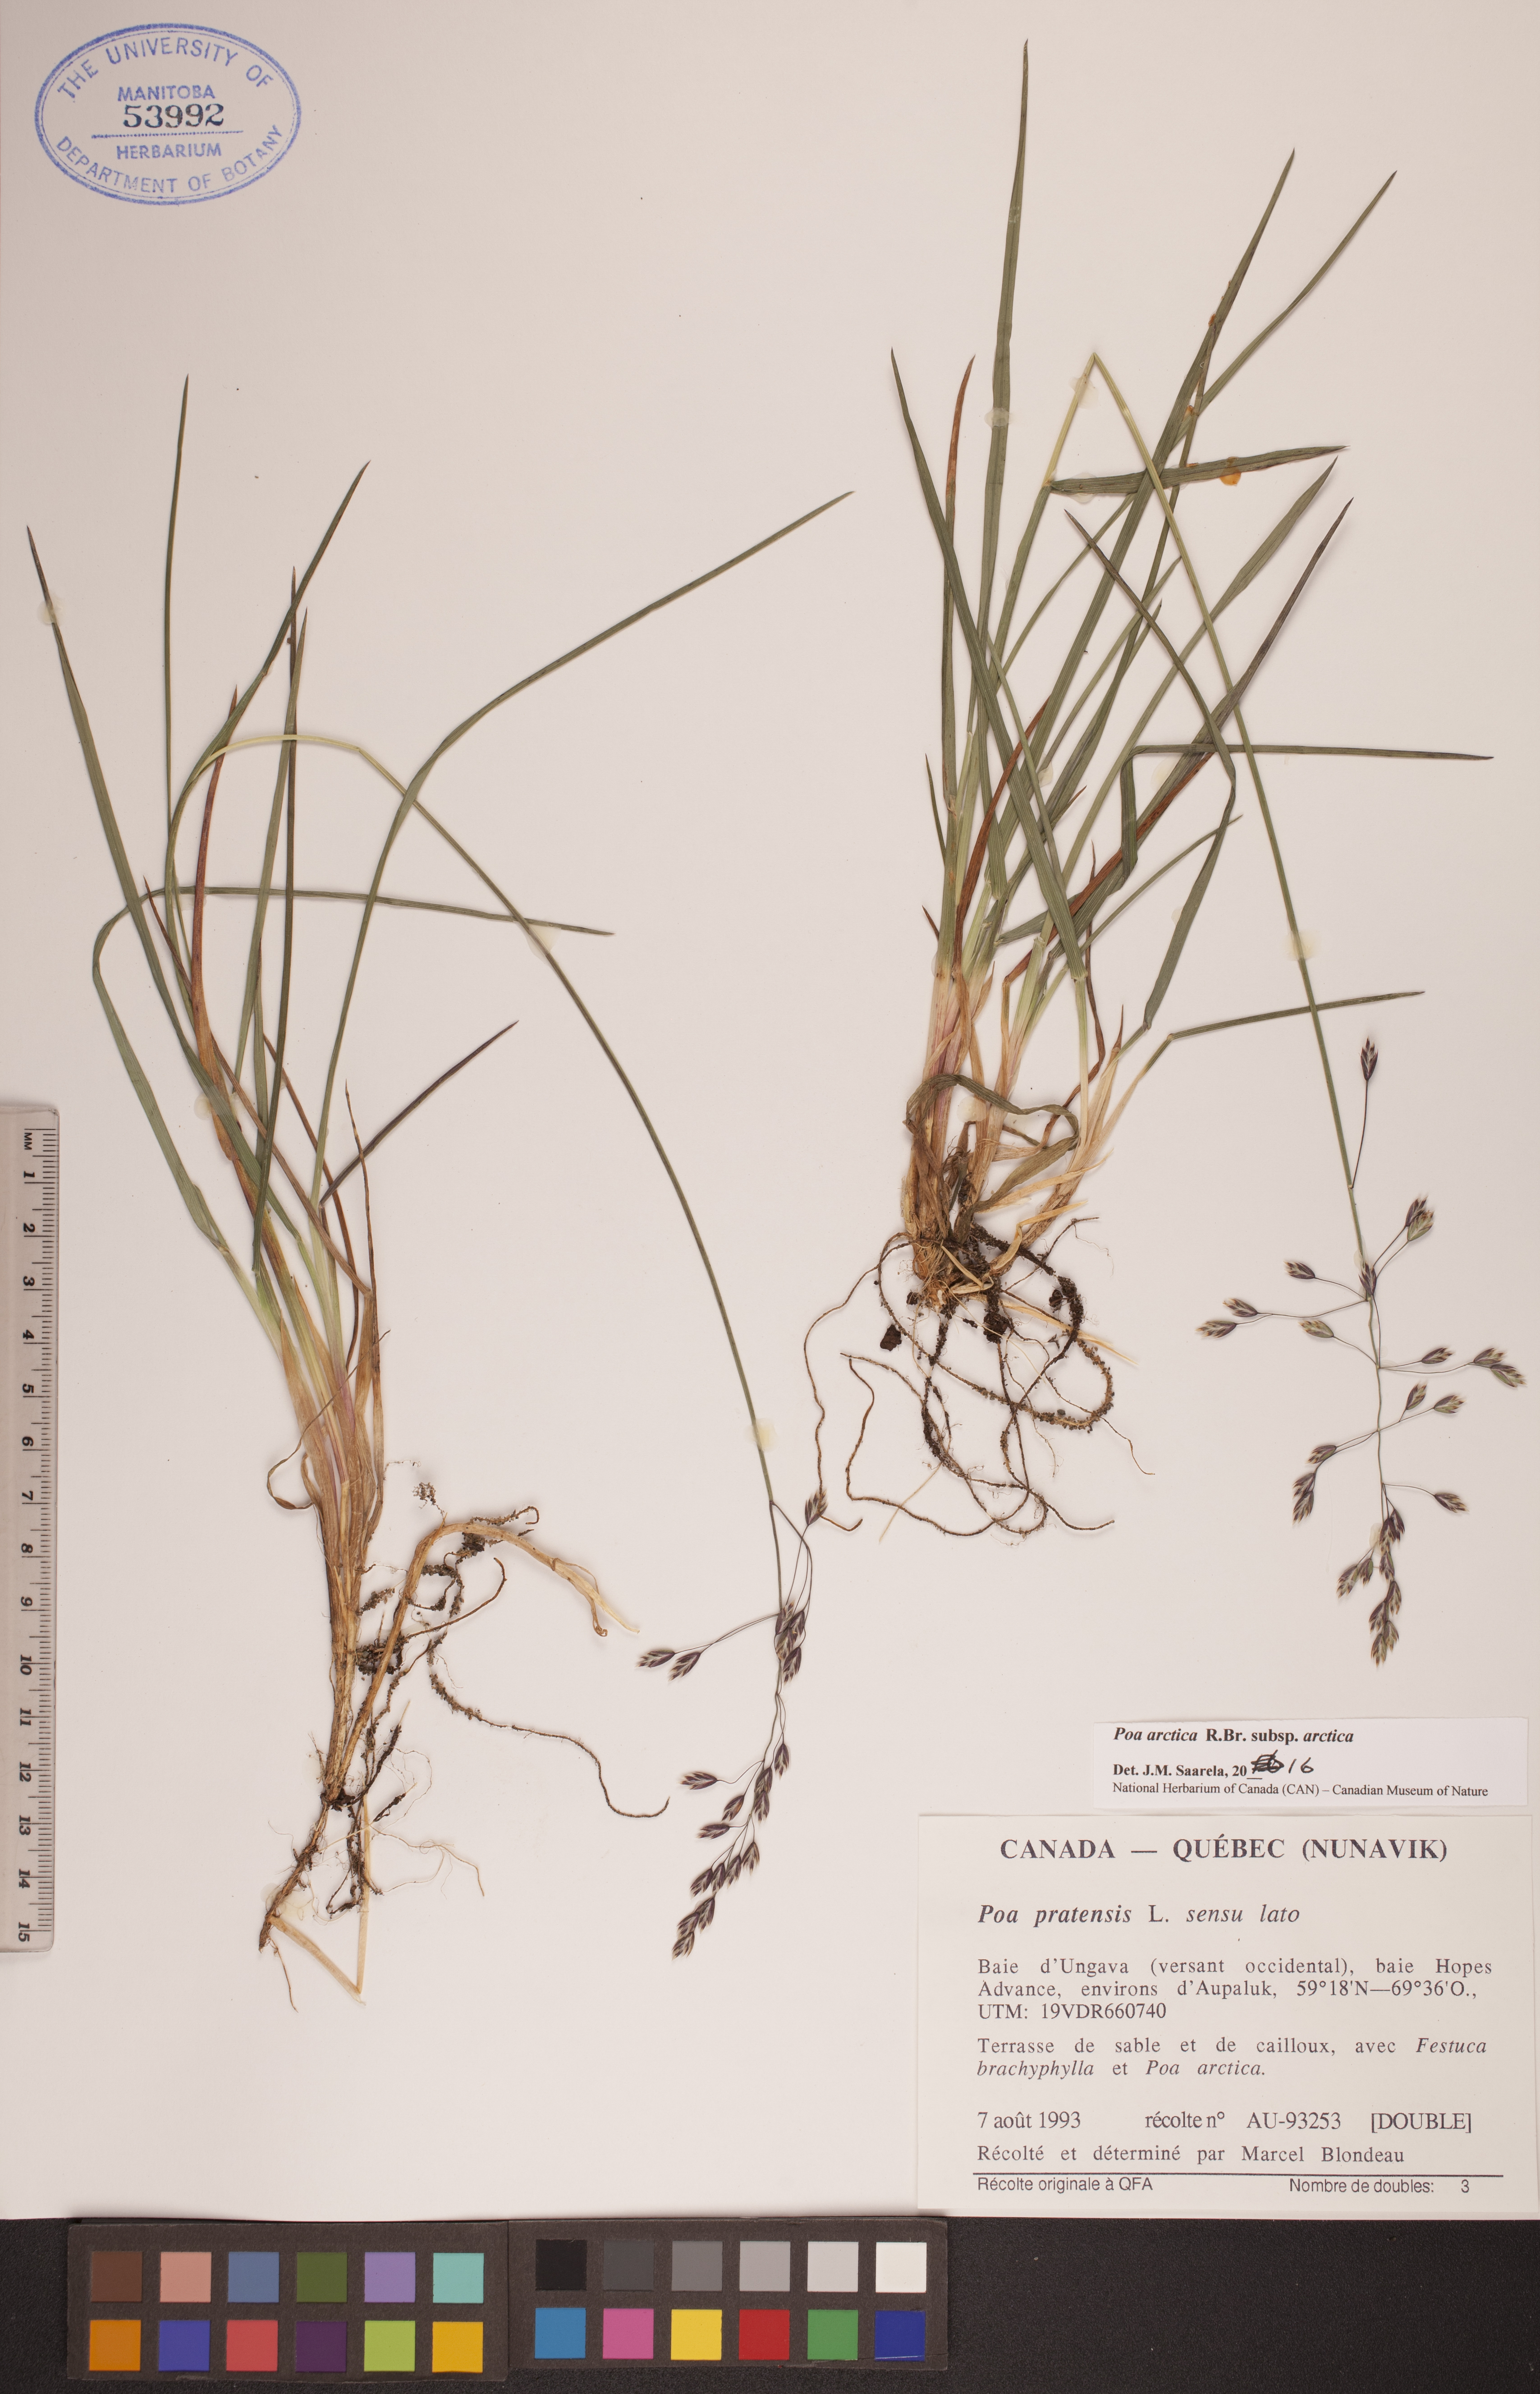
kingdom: Plantae
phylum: Tracheophyta
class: Liliopsida
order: Poales
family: Poaceae
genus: Poa
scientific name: Poa arctica
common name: Arctic bluegrass
